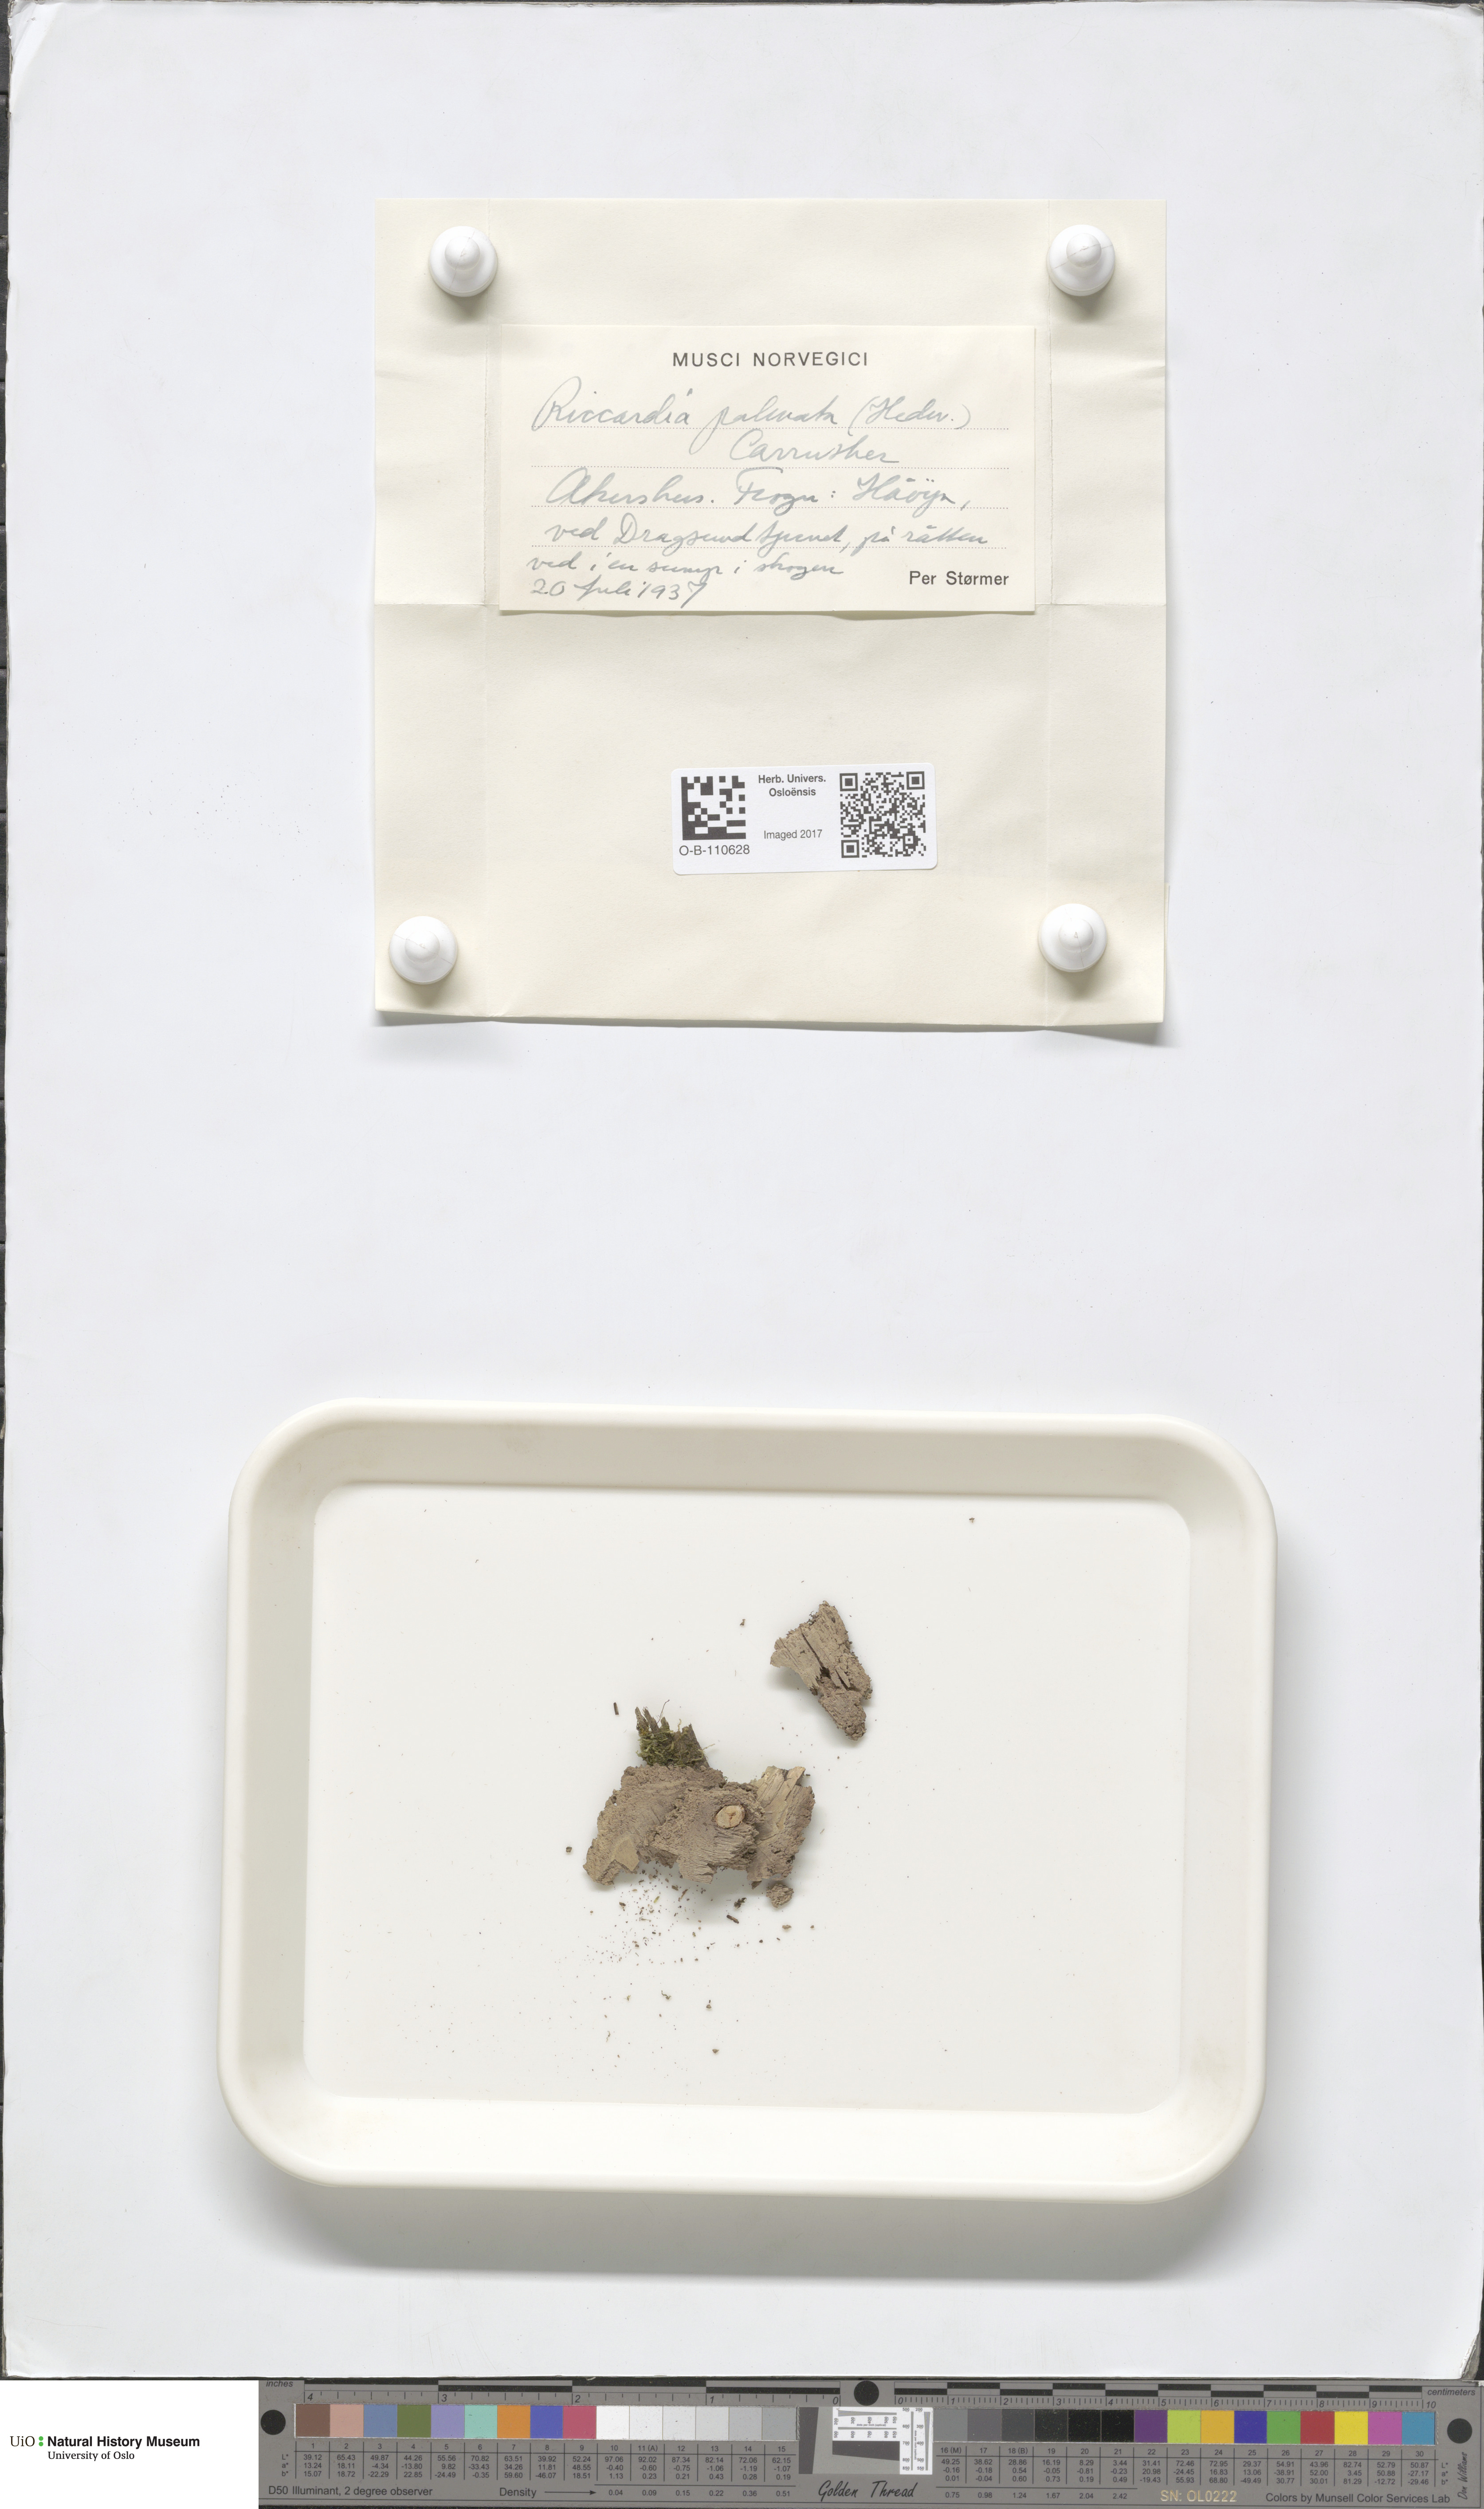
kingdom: Plantae
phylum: Marchantiophyta
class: Jungermanniopsida
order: Metzgeriales
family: Aneuraceae
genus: Riccardia
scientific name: Riccardia palmata
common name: Palmate germanderwort
